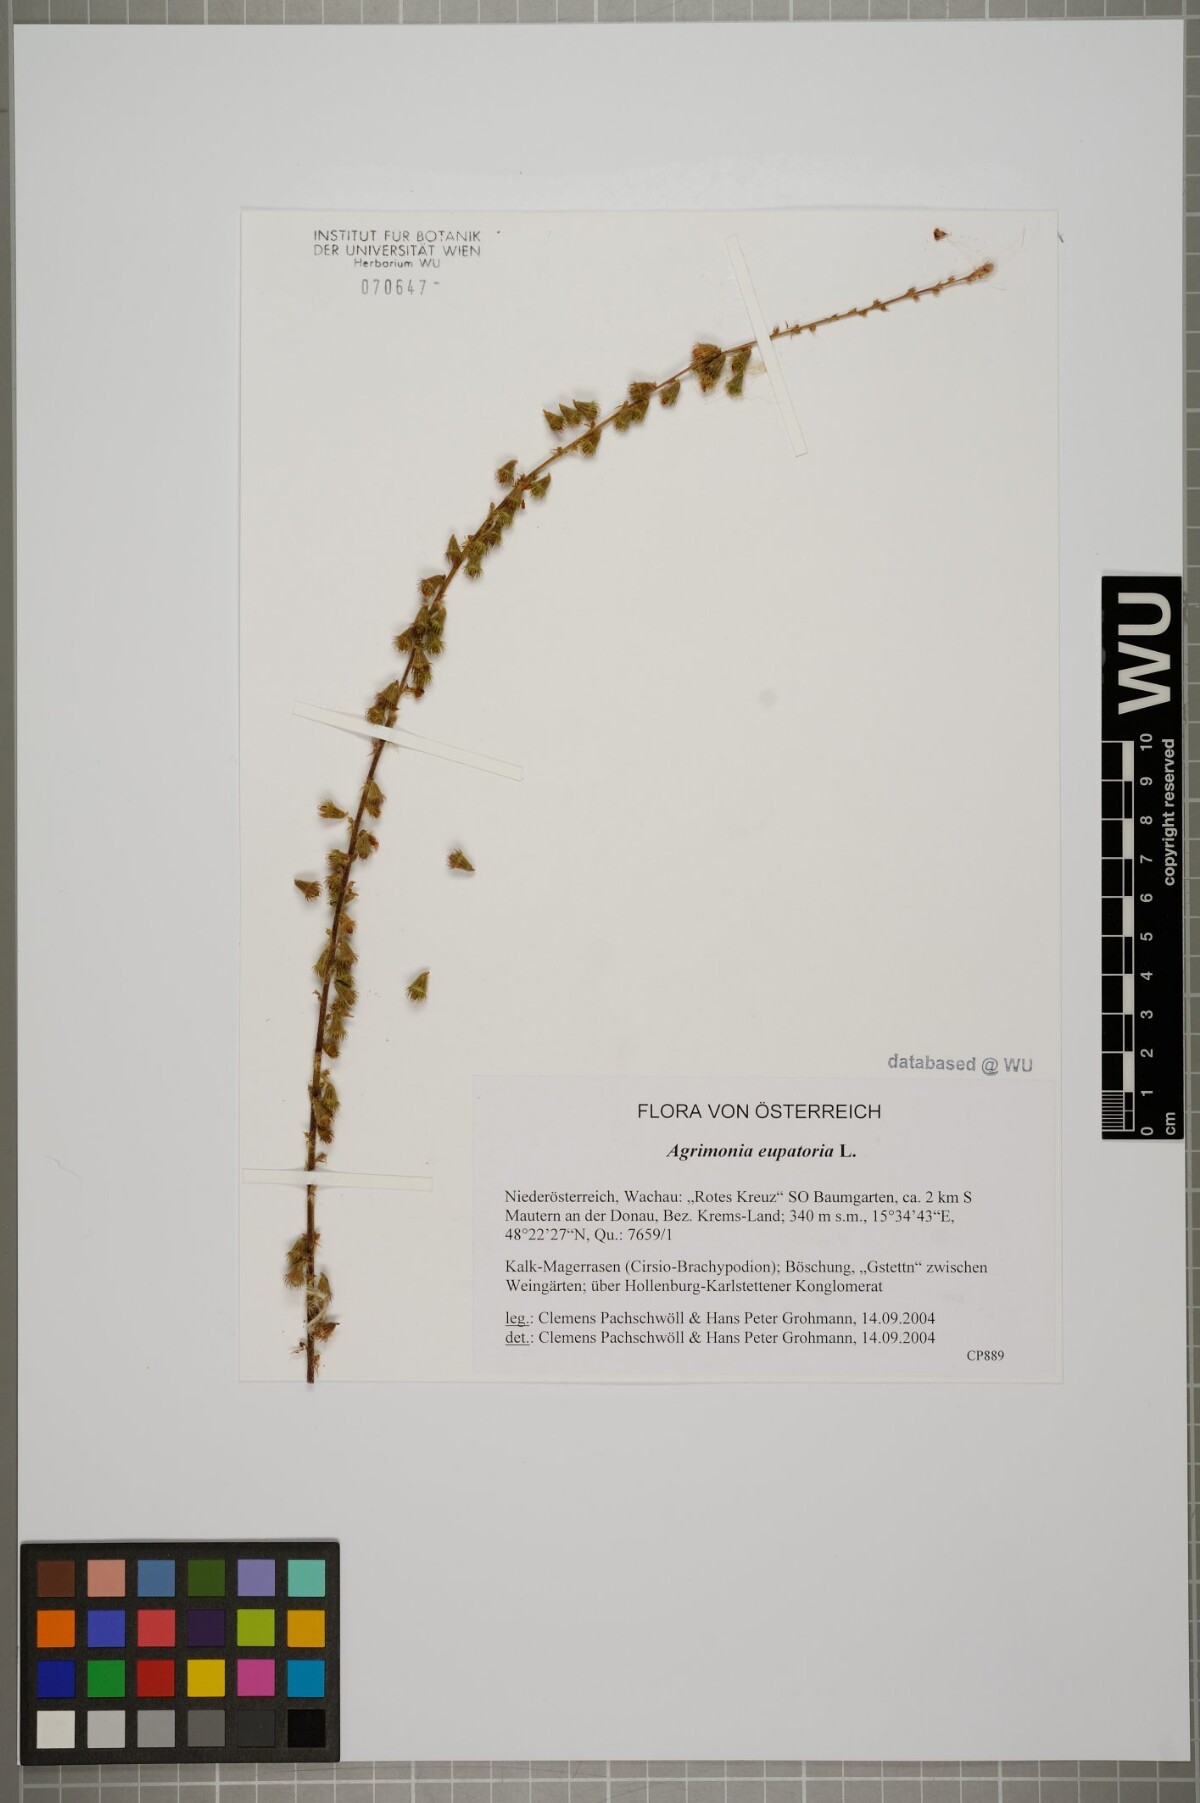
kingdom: Plantae
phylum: Tracheophyta
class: Magnoliopsida
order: Rosales
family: Rosaceae
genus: Agrimonia
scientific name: Agrimonia eupatoria
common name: Agrimony
